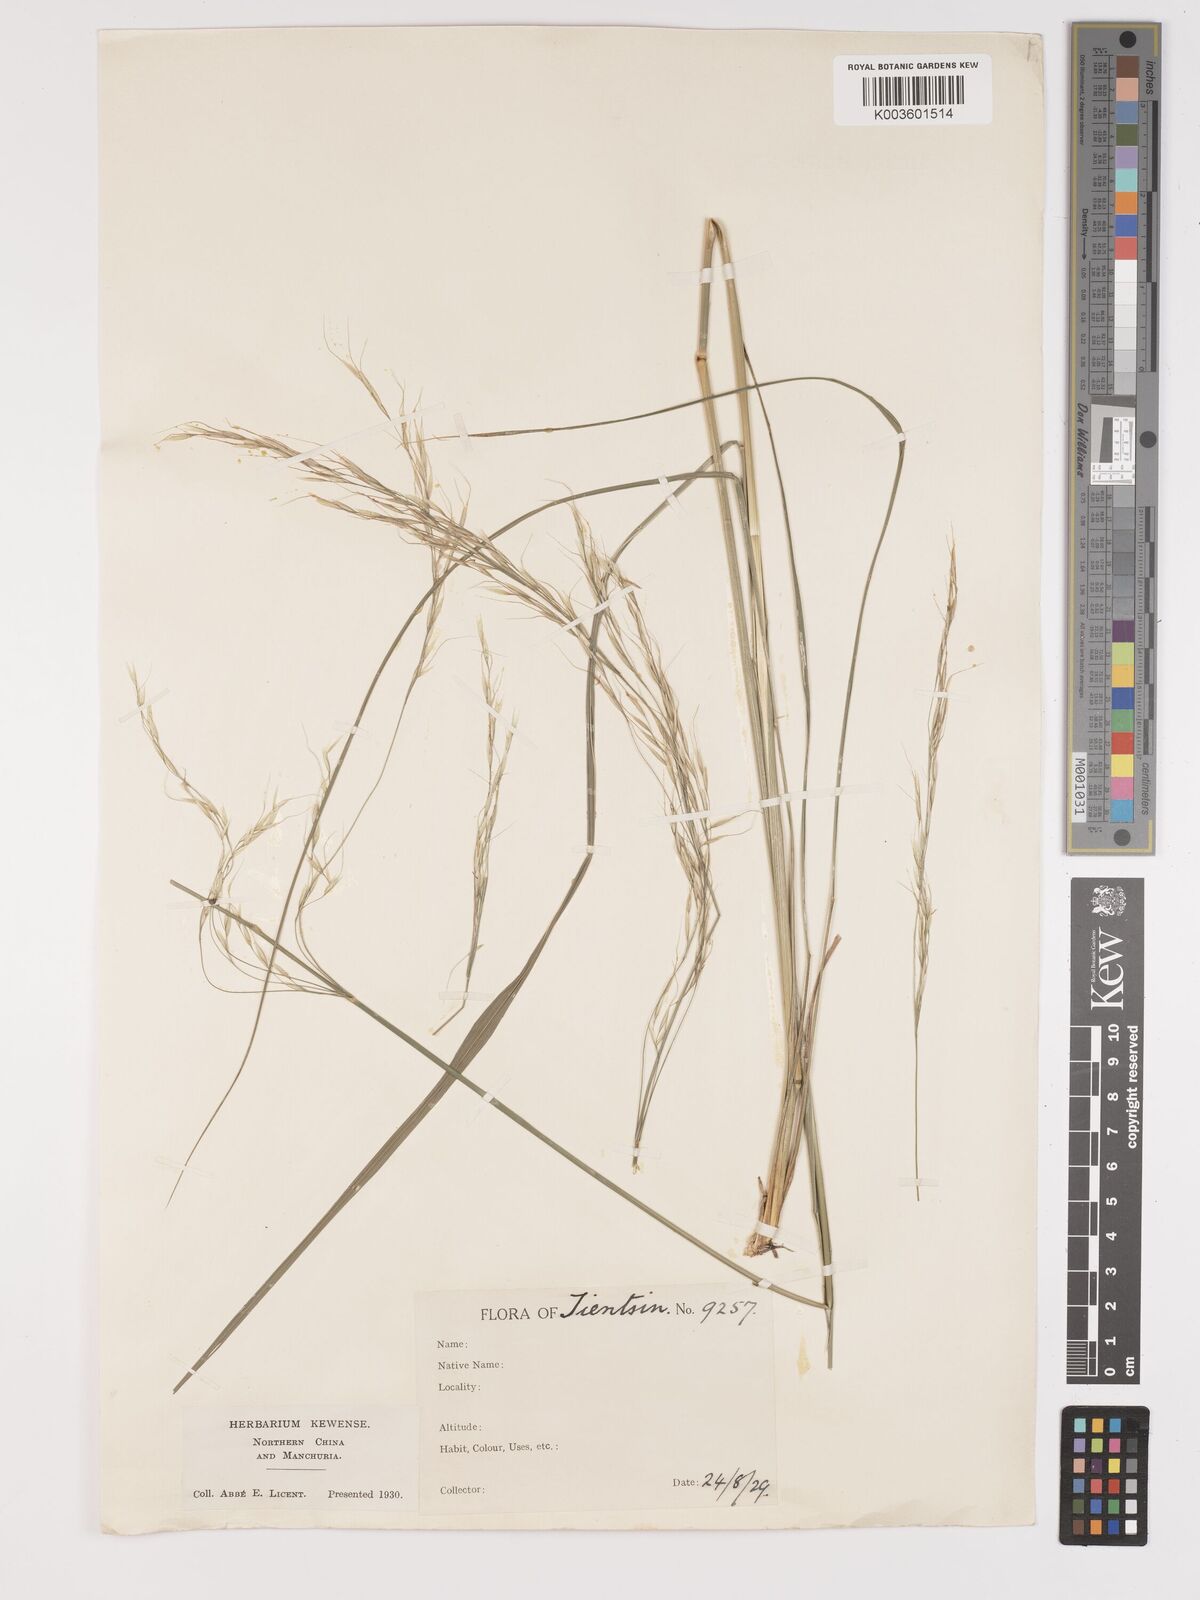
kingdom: Plantae
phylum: Tracheophyta
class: Liliopsida
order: Poales
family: Poaceae
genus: Stipa
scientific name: Stipa
